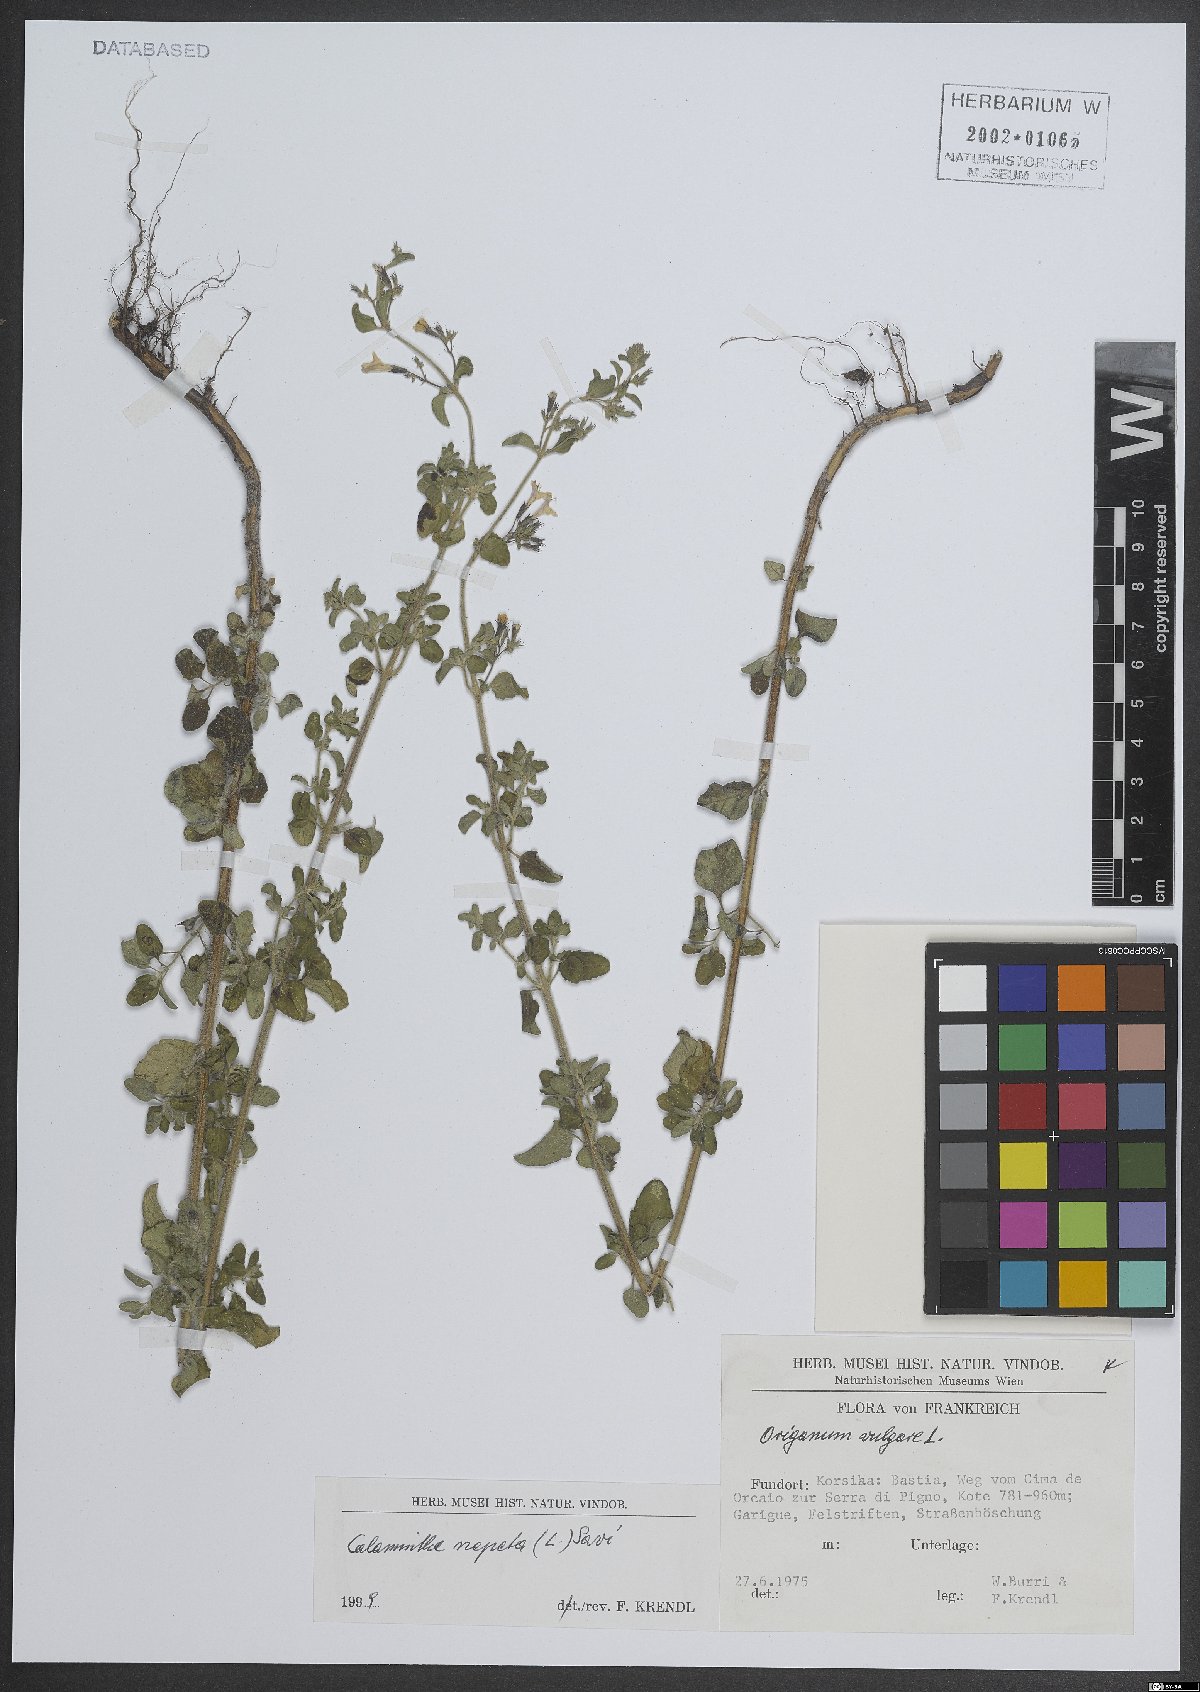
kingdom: Plantae
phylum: Tracheophyta
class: Magnoliopsida
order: Lamiales
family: Lamiaceae
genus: Clinopodium
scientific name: Clinopodium nepeta
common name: Lesser calamint
